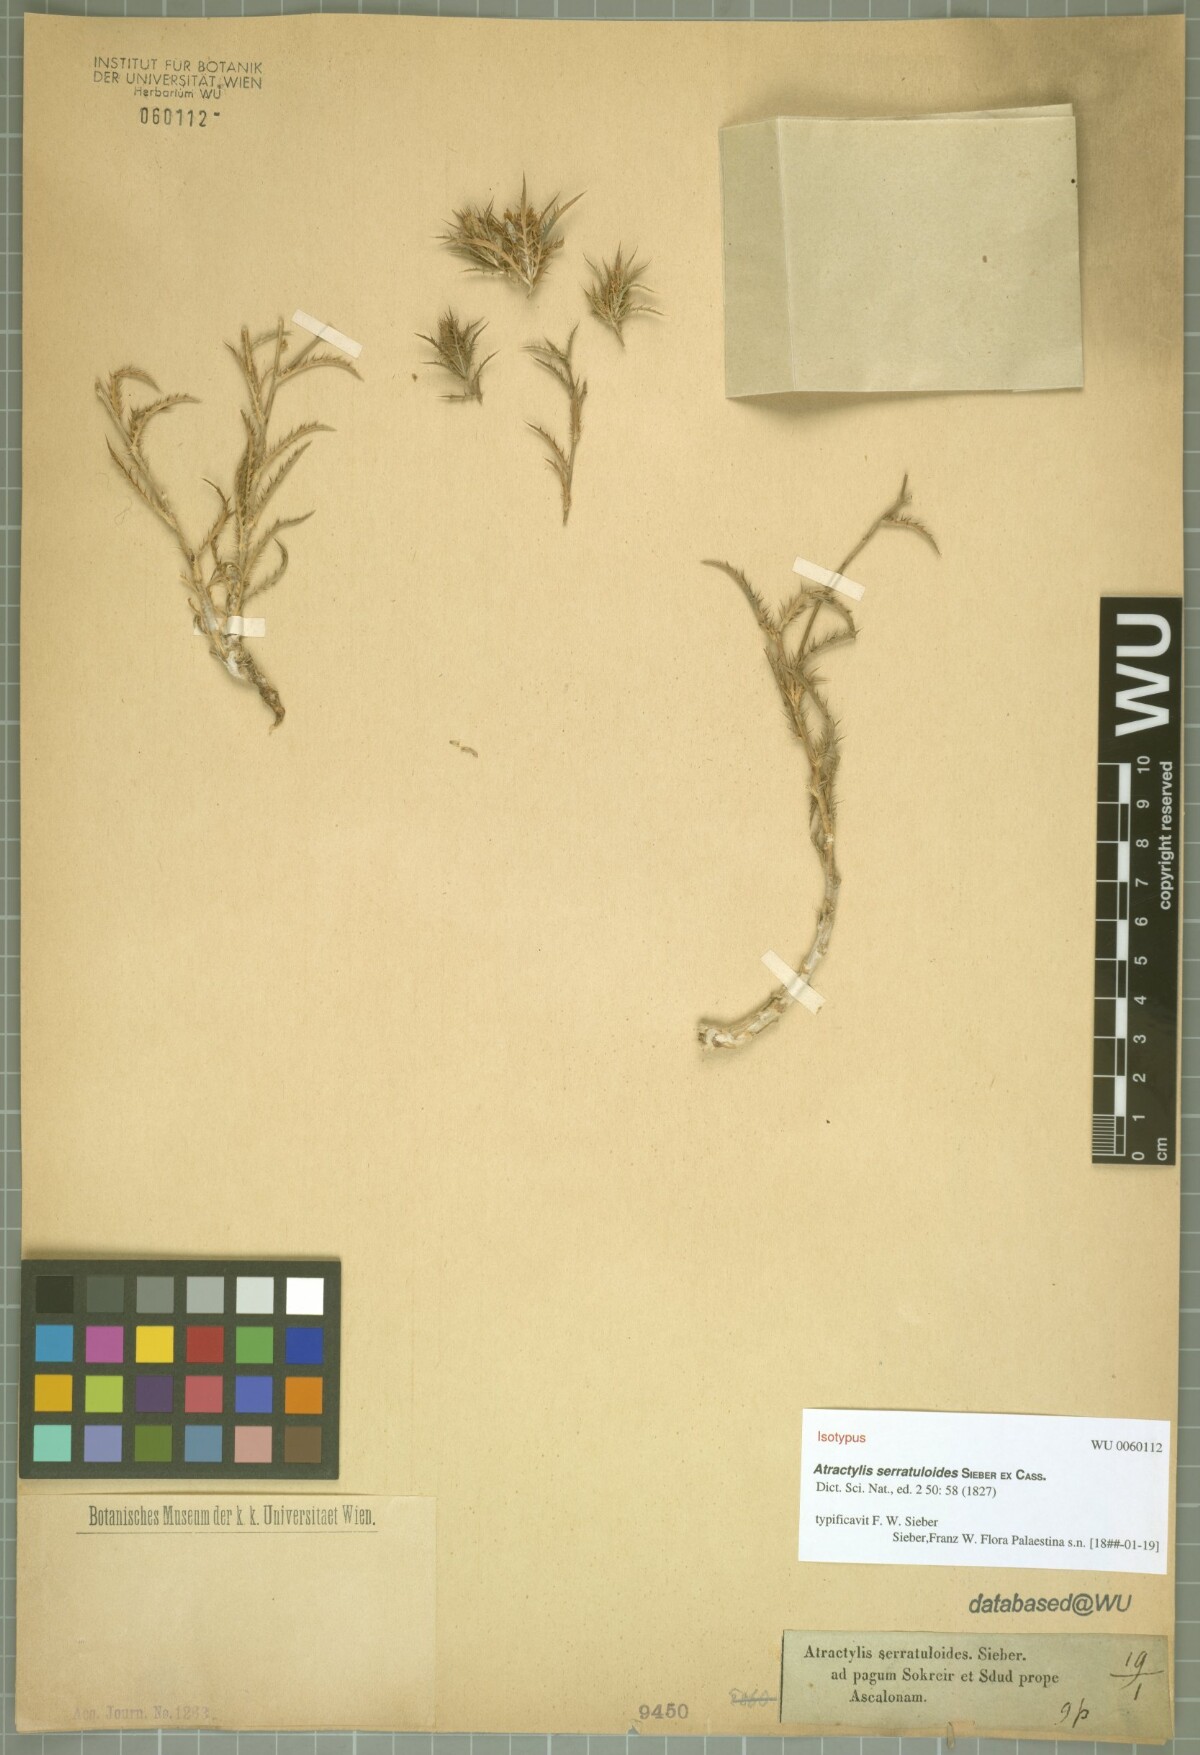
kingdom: Plantae
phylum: Tracheophyta
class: Magnoliopsida
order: Asterales
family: Asteraceae
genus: Atractylis
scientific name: Atractylis serratuloides
